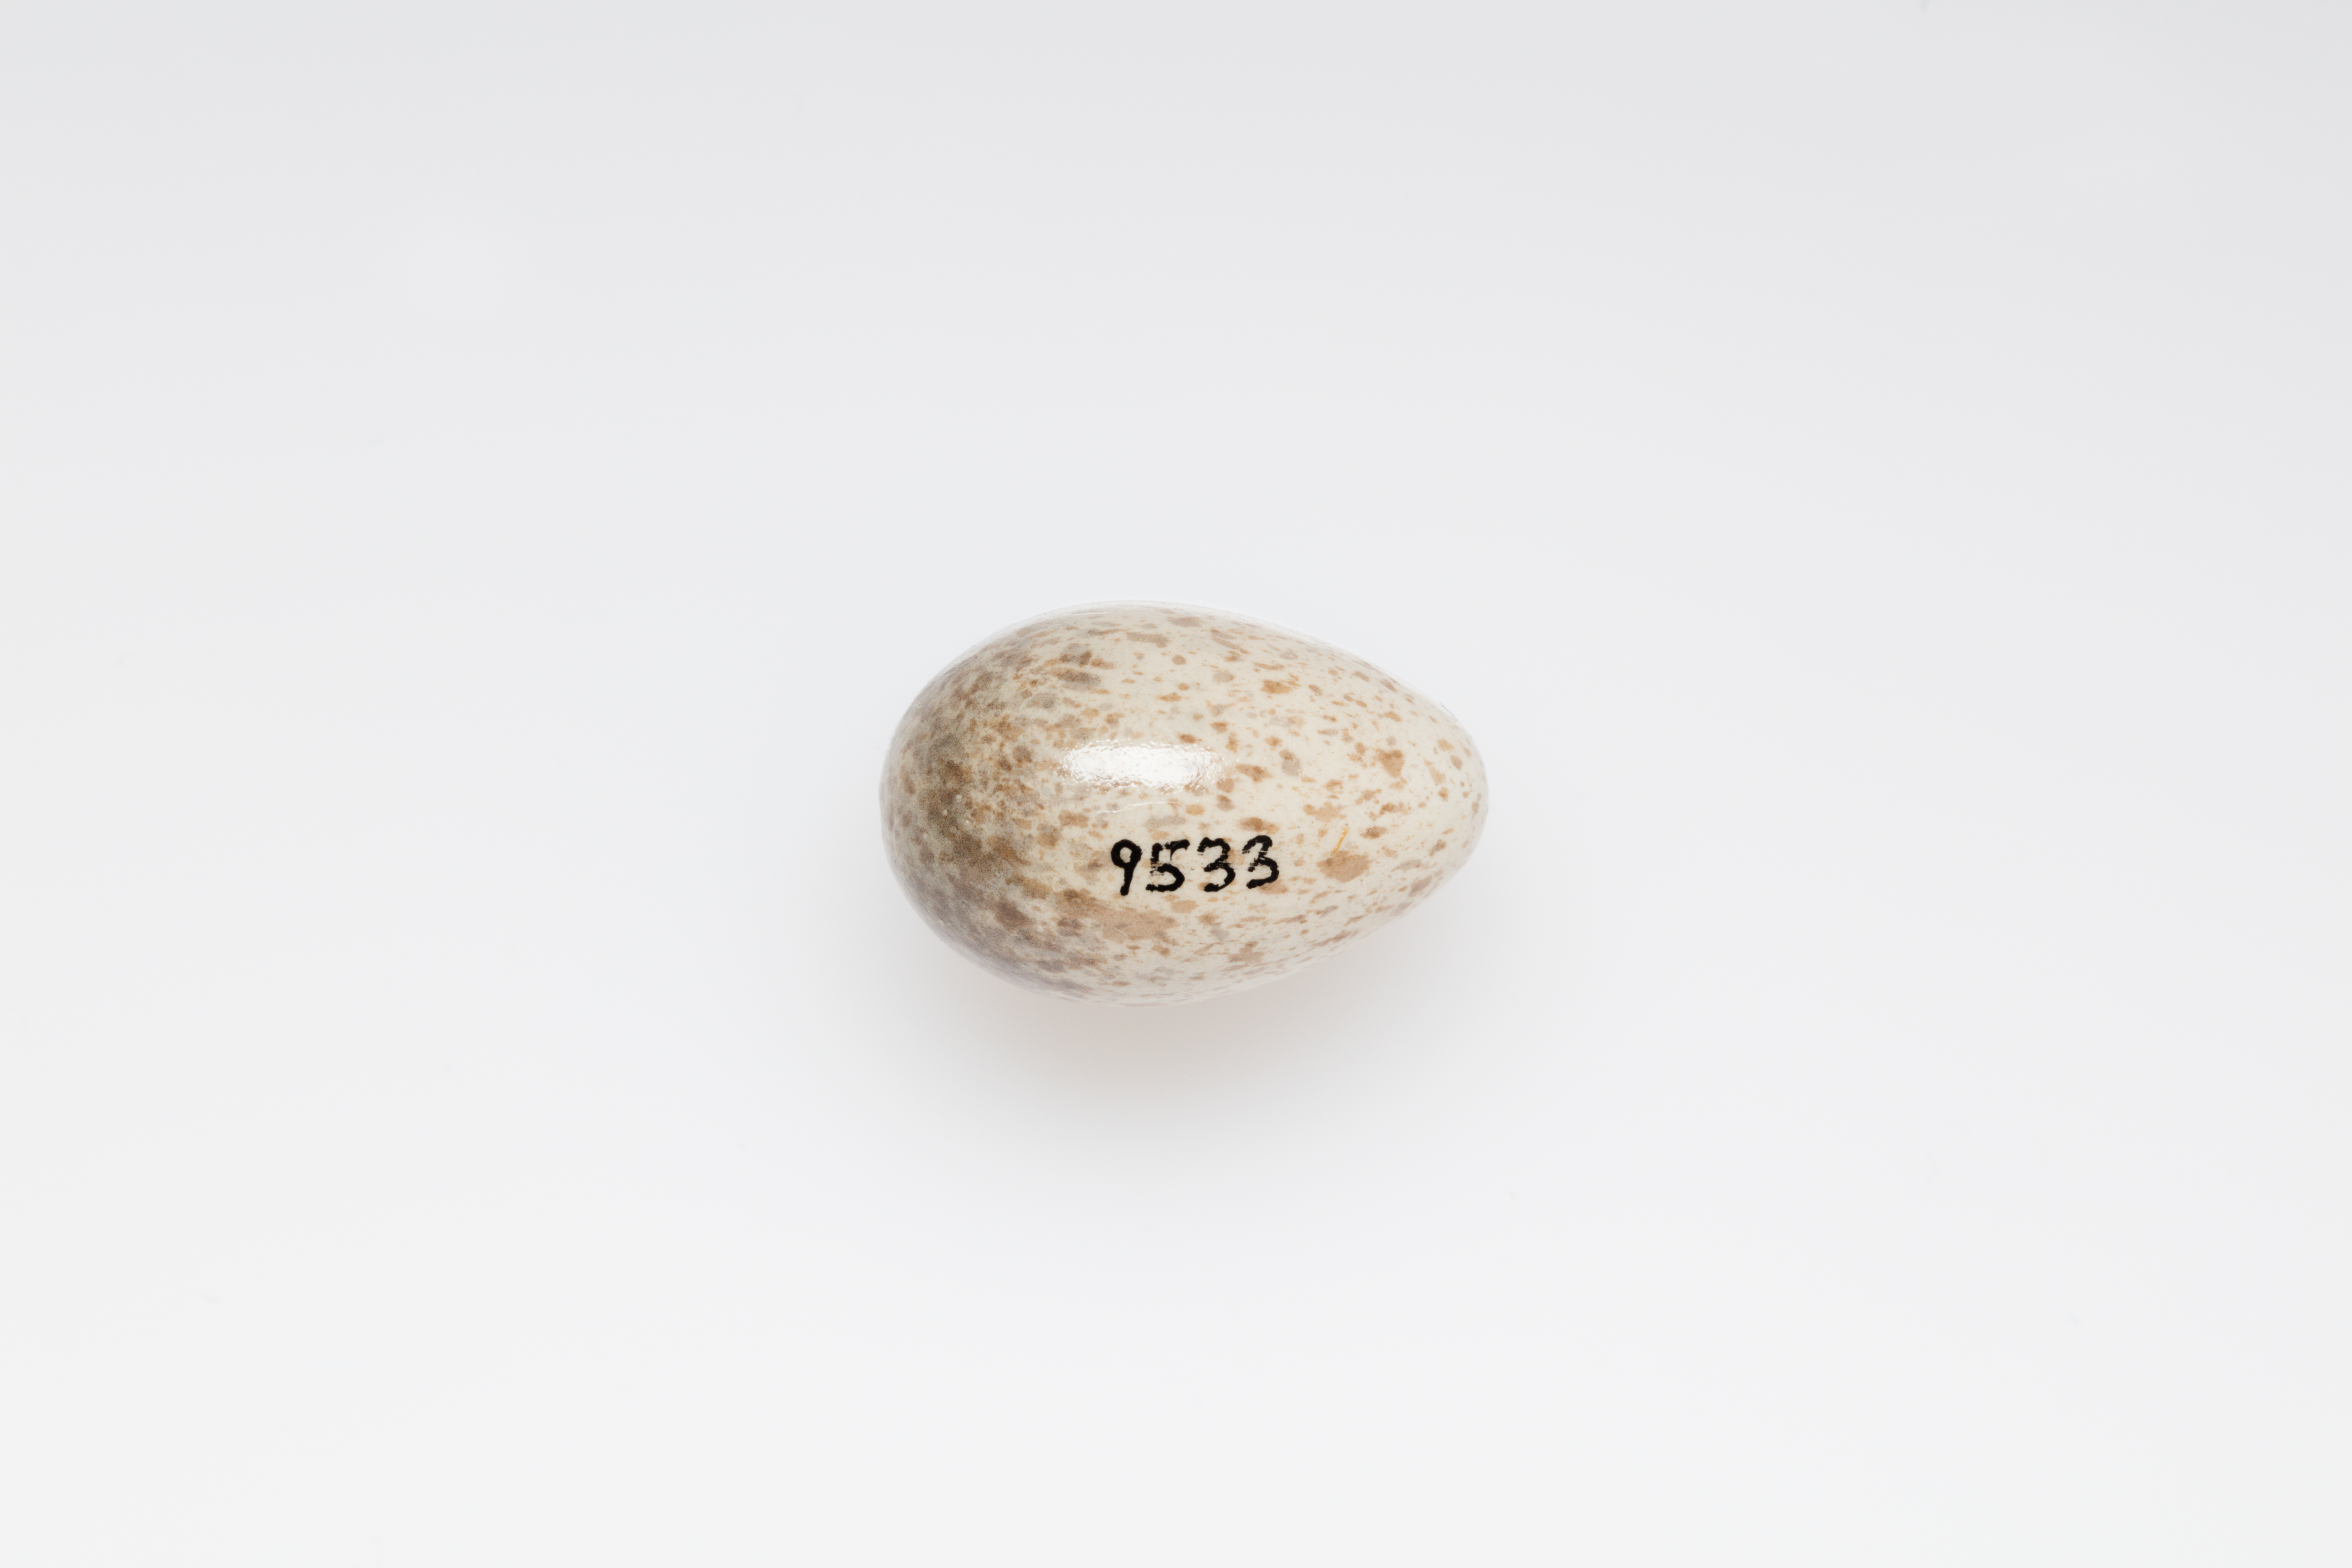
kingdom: Animalia
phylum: Chordata
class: Aves
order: Passeriformes
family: Alaudidae
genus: Alauda
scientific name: Alauda arvensis
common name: Eurasian skylark
